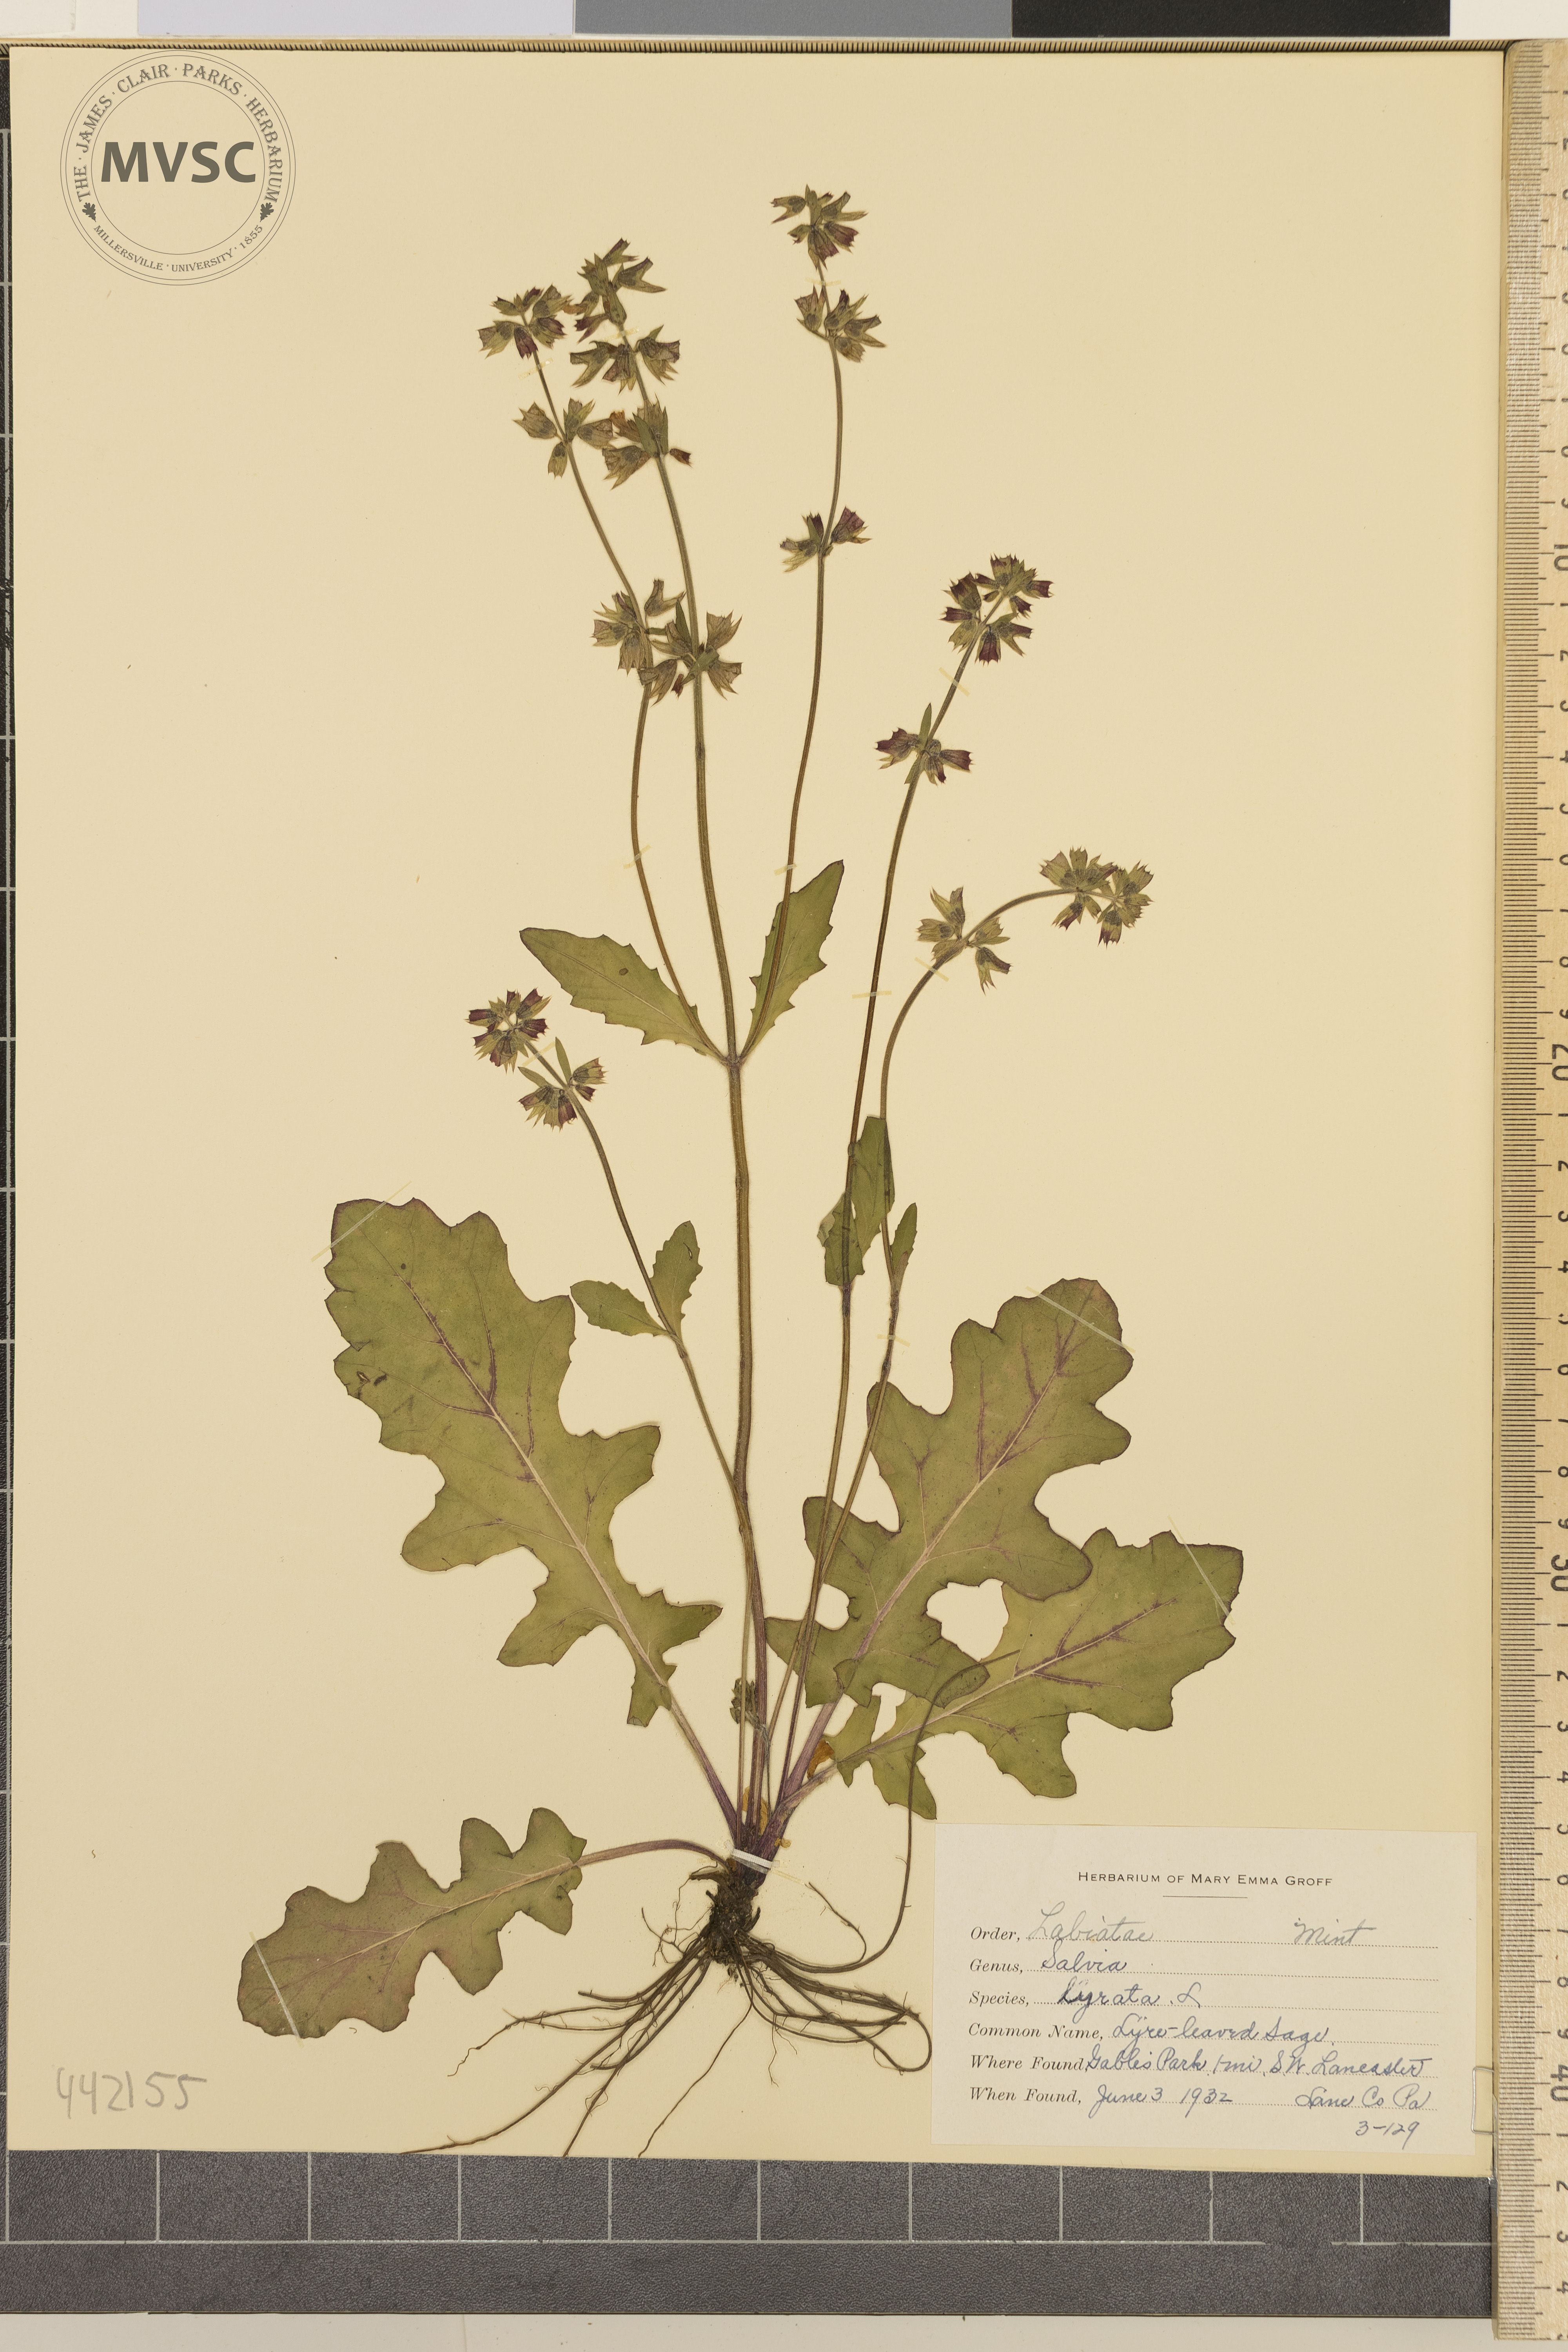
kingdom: Plantae
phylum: Tracheophyta
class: Magnoliopsida
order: Lamiales
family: Lamiaceae
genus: Salvia
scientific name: Salvia lyrata
